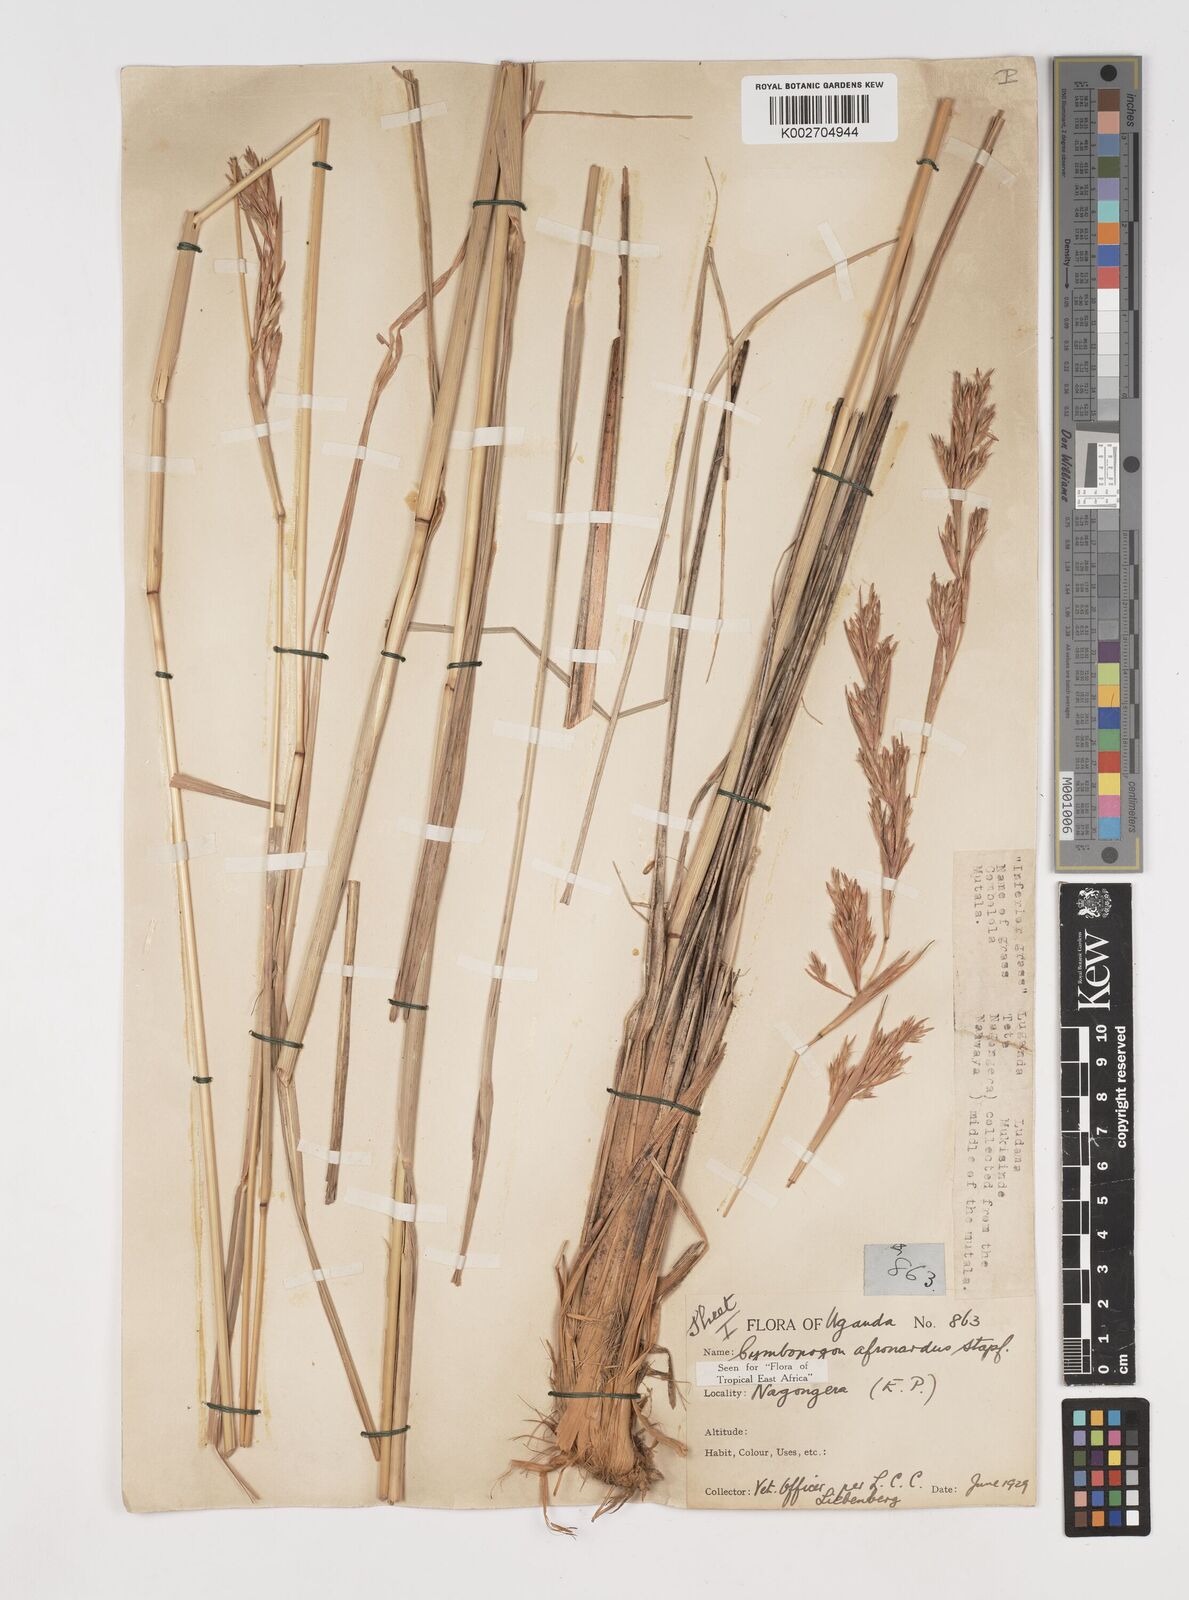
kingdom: Plantae
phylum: Tracheophyta
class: Liliopsida
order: Poales
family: Poaceae
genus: Cymbopogon
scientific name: Cymbopogon nardus
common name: Giant turpentine grass
